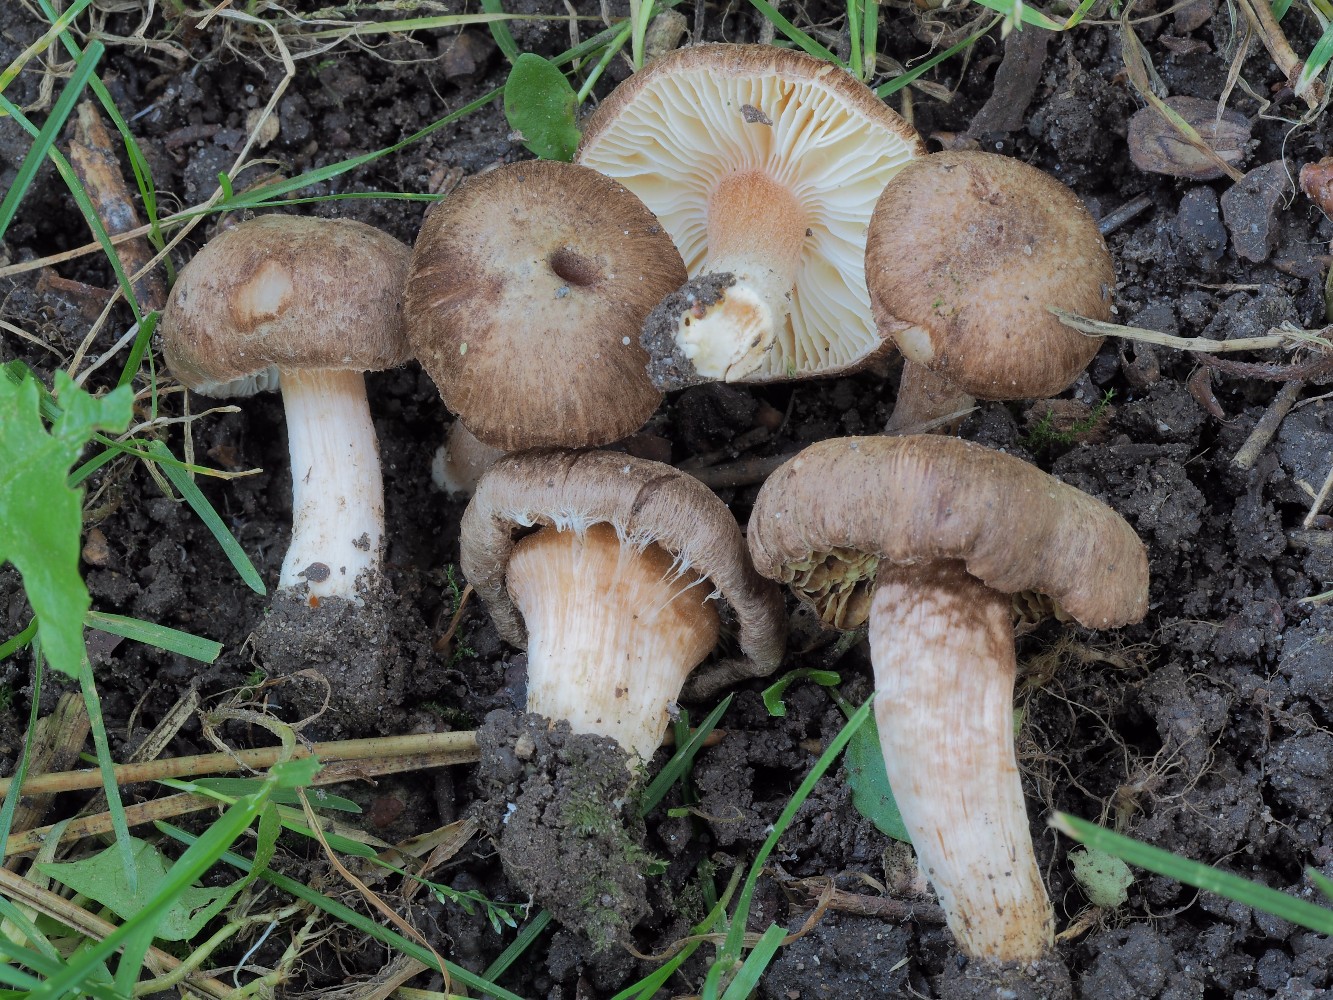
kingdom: Fungi
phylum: Basidiomycota
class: Agaricomycetes
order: Agaricales
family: Inocybaceae
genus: Inocybe
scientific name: Inocybe
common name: trævlhat
